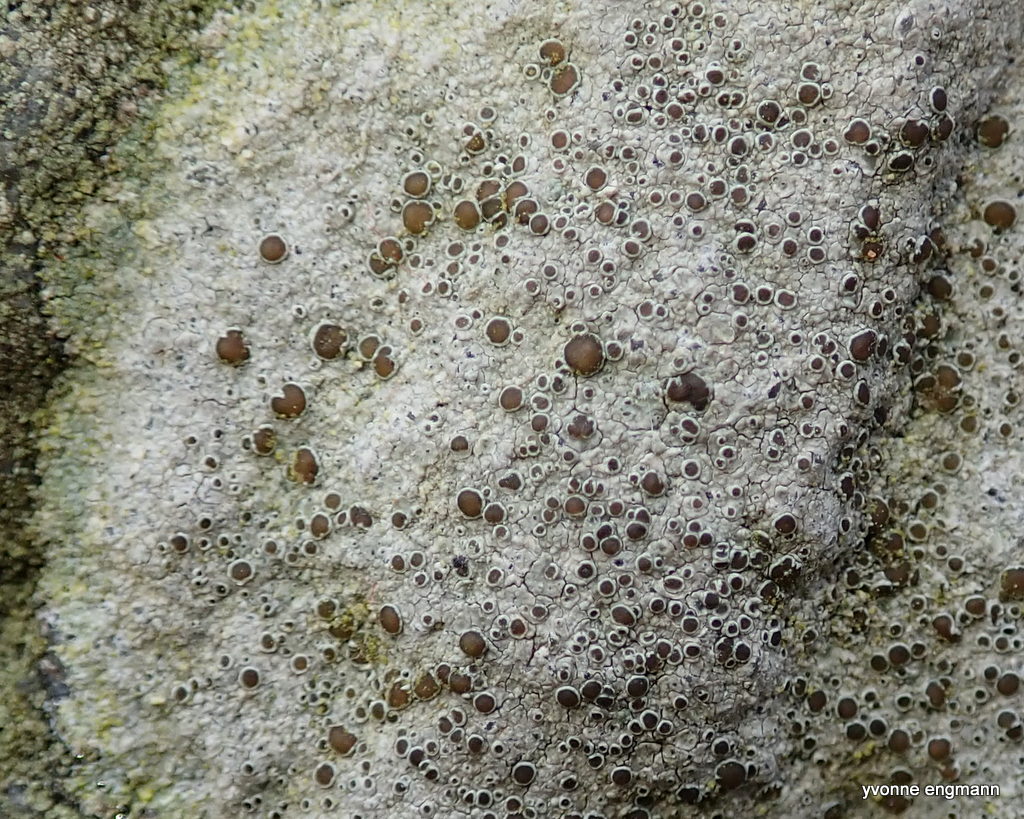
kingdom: Fungi
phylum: Ascomycota
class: Lecanoromycetes
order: Lecanorales
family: Lecanoraceae
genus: Lecanora
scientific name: Lecanora campestris
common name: mur-kantskivelav
